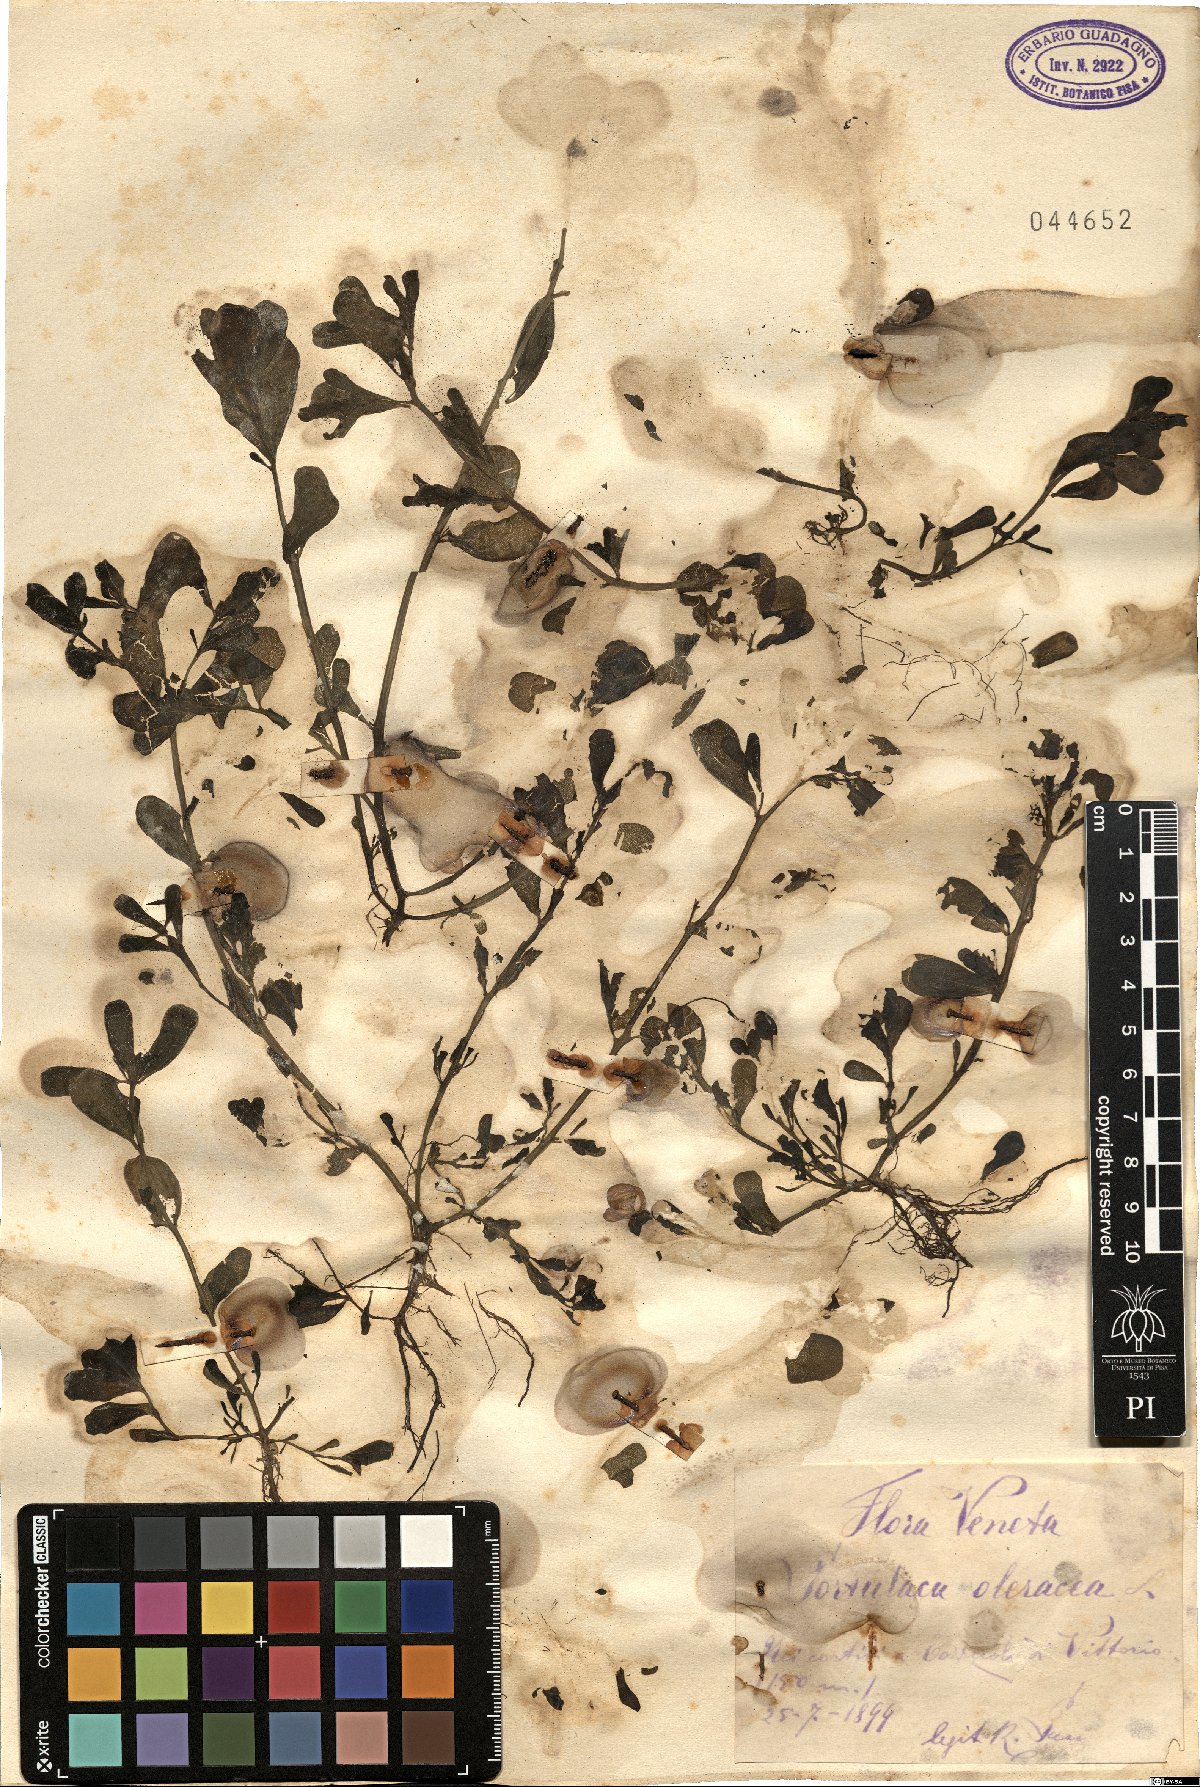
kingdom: Plantae
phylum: Tracheophyta
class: Magnoliopsida
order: Caryophyllales
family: Portulacaceae
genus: Portulaca
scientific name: Portulaca oleracea
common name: Common purslane
